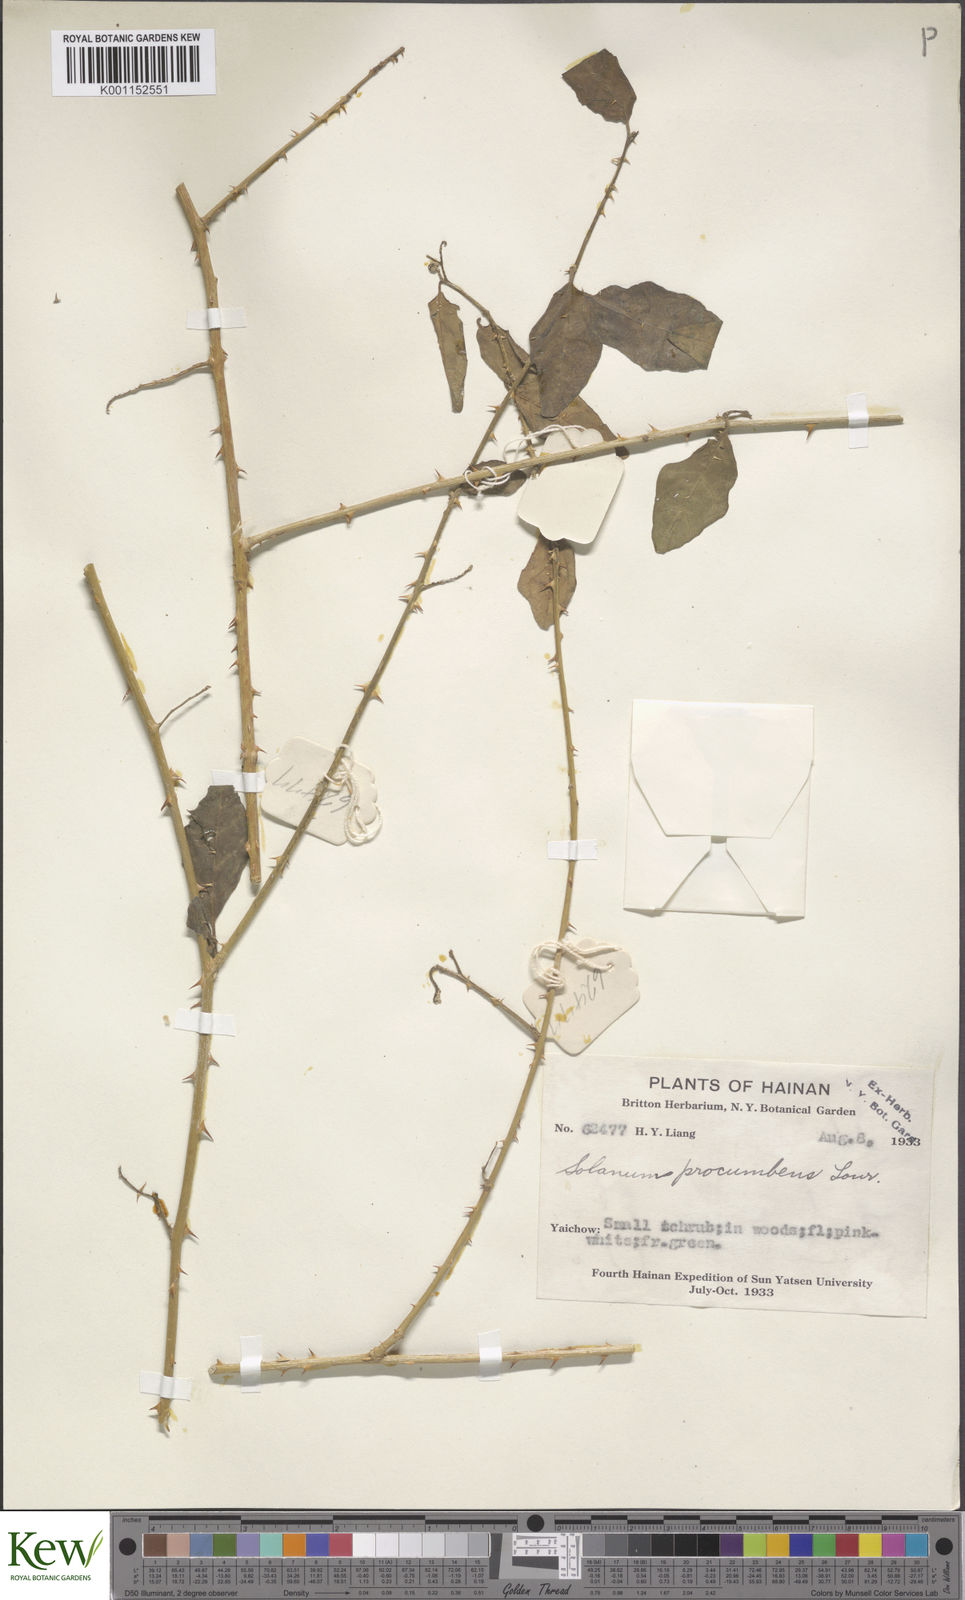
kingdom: Plantae
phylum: Tracheophyta
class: Magnoliopsida
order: Solanales
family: Solanaceae
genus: Solanum
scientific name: Solanum procumbens
